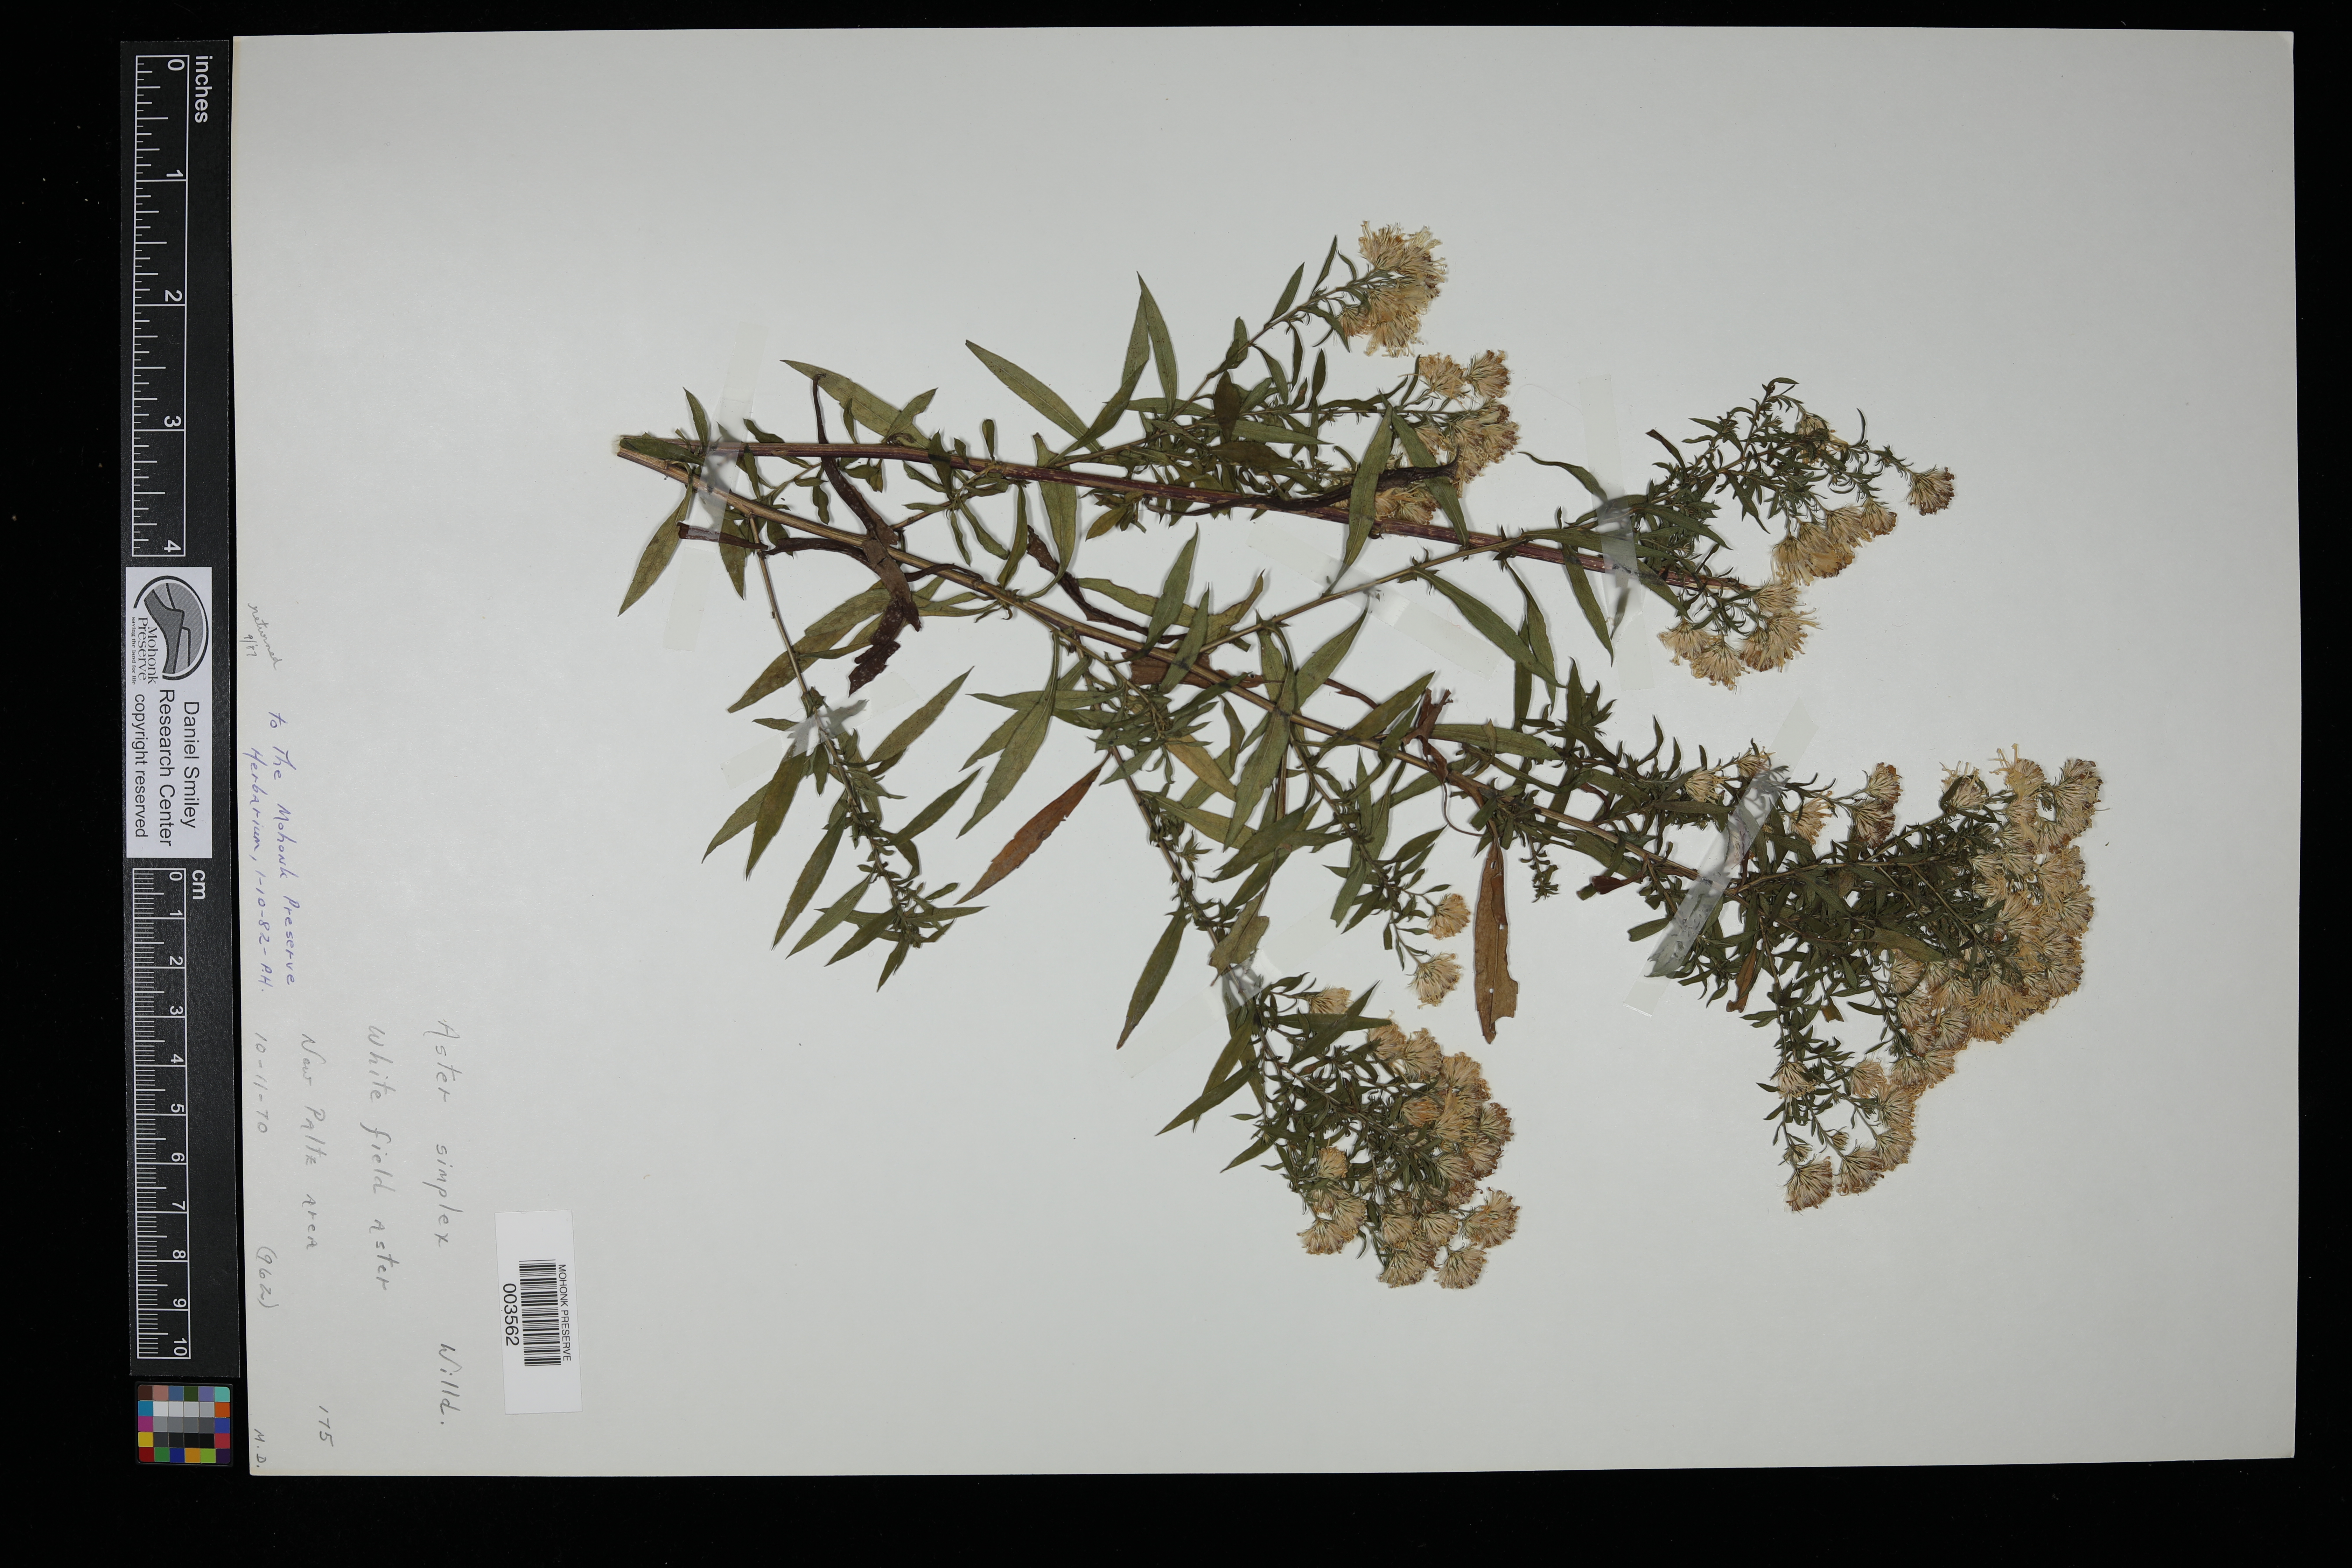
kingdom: Plantae
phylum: Tracheophyta
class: Magnoliopsida
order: Asterales
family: Asteraceae
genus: Symphyotrichum
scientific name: Symphyotrichum lanceolatum
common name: Panicled aster
